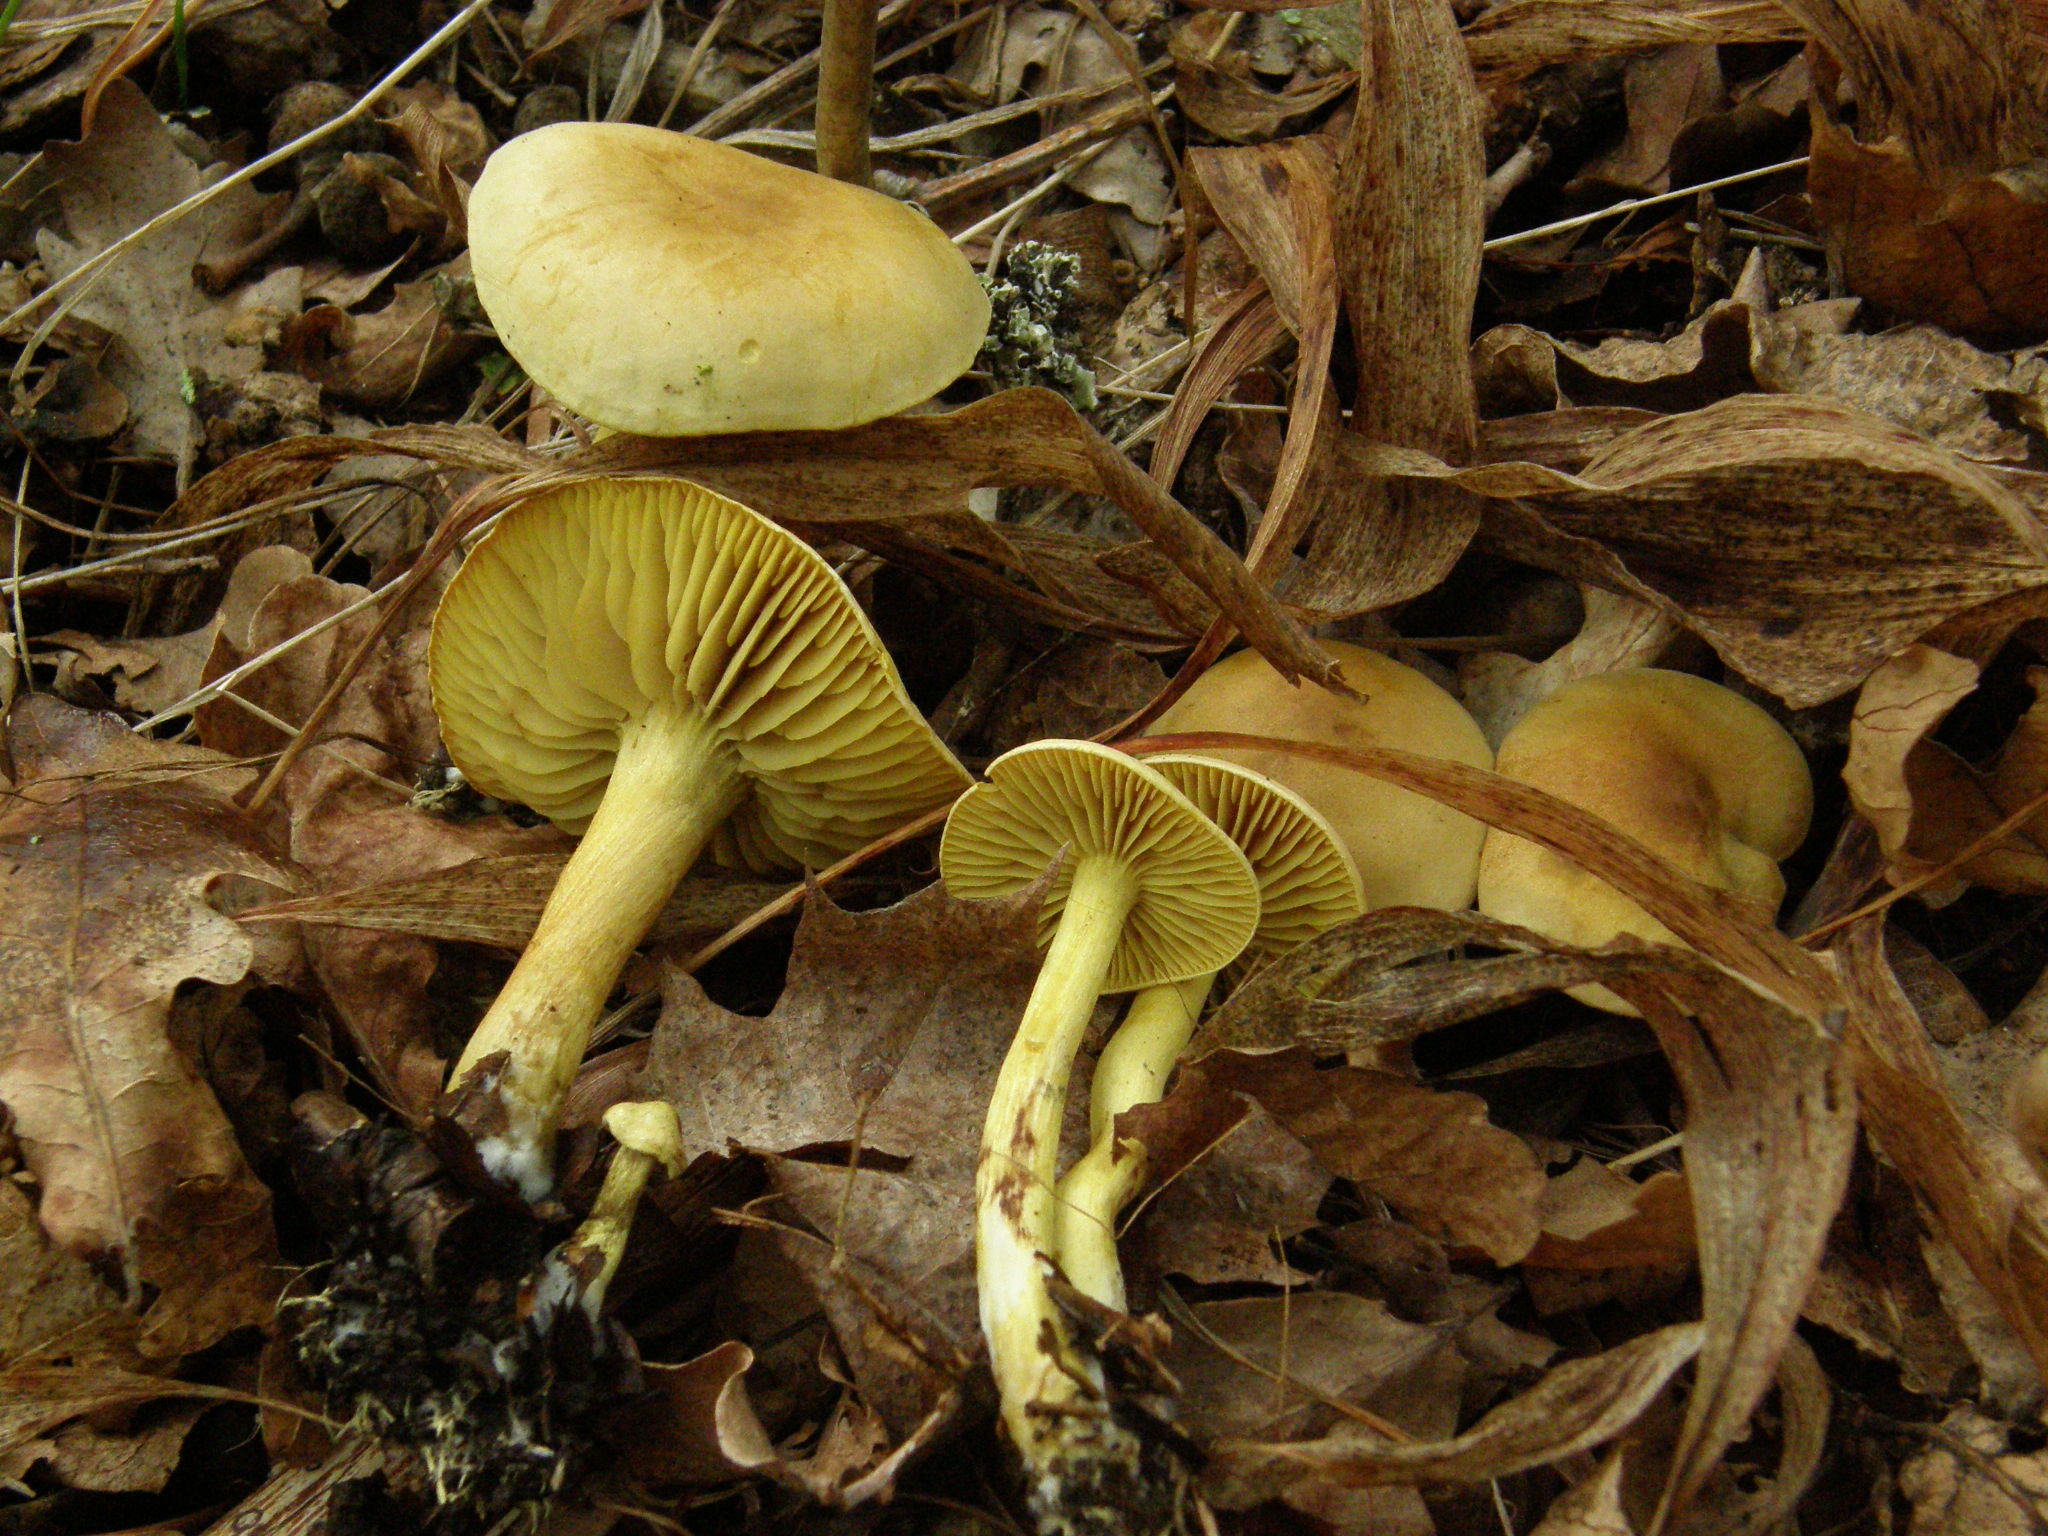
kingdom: Fungi
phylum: Basidiomycota
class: Agaricomycetes
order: Agaricales
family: Tricholomataceae
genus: Tricholoma
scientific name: Tricholoma sulphureum
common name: Stinky knight
